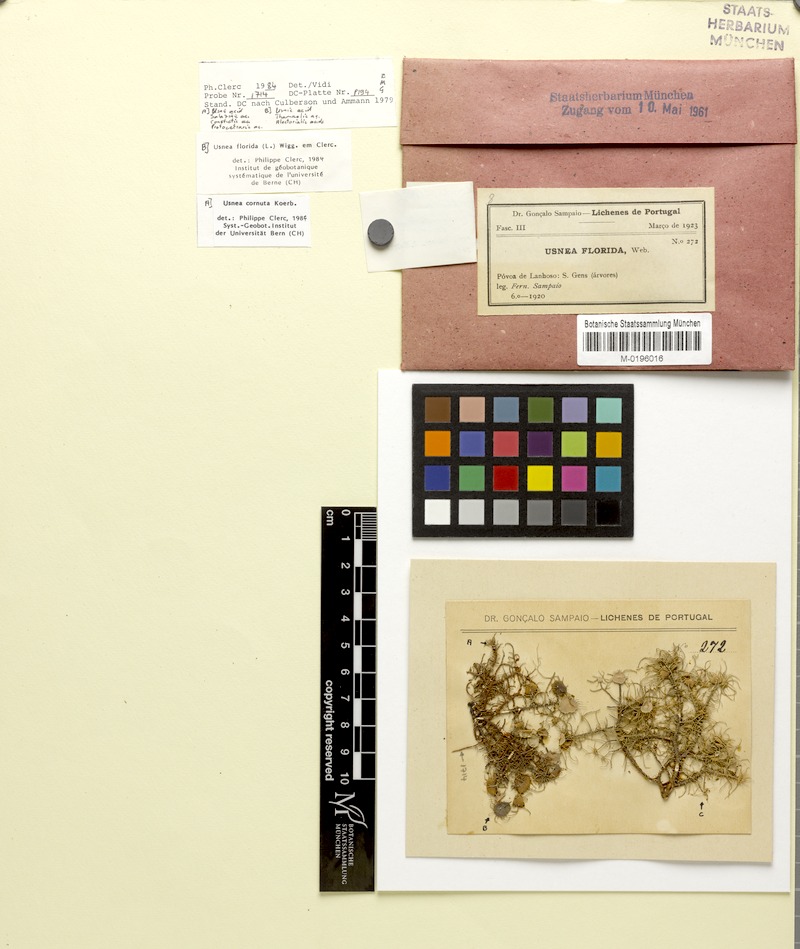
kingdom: Fungi
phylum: Ascomycota
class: Lecanoromycetes
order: Lecanorales
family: Parmeliaceae
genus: Usnea
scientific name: Usnea florida
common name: Witches' whiskers lichen
